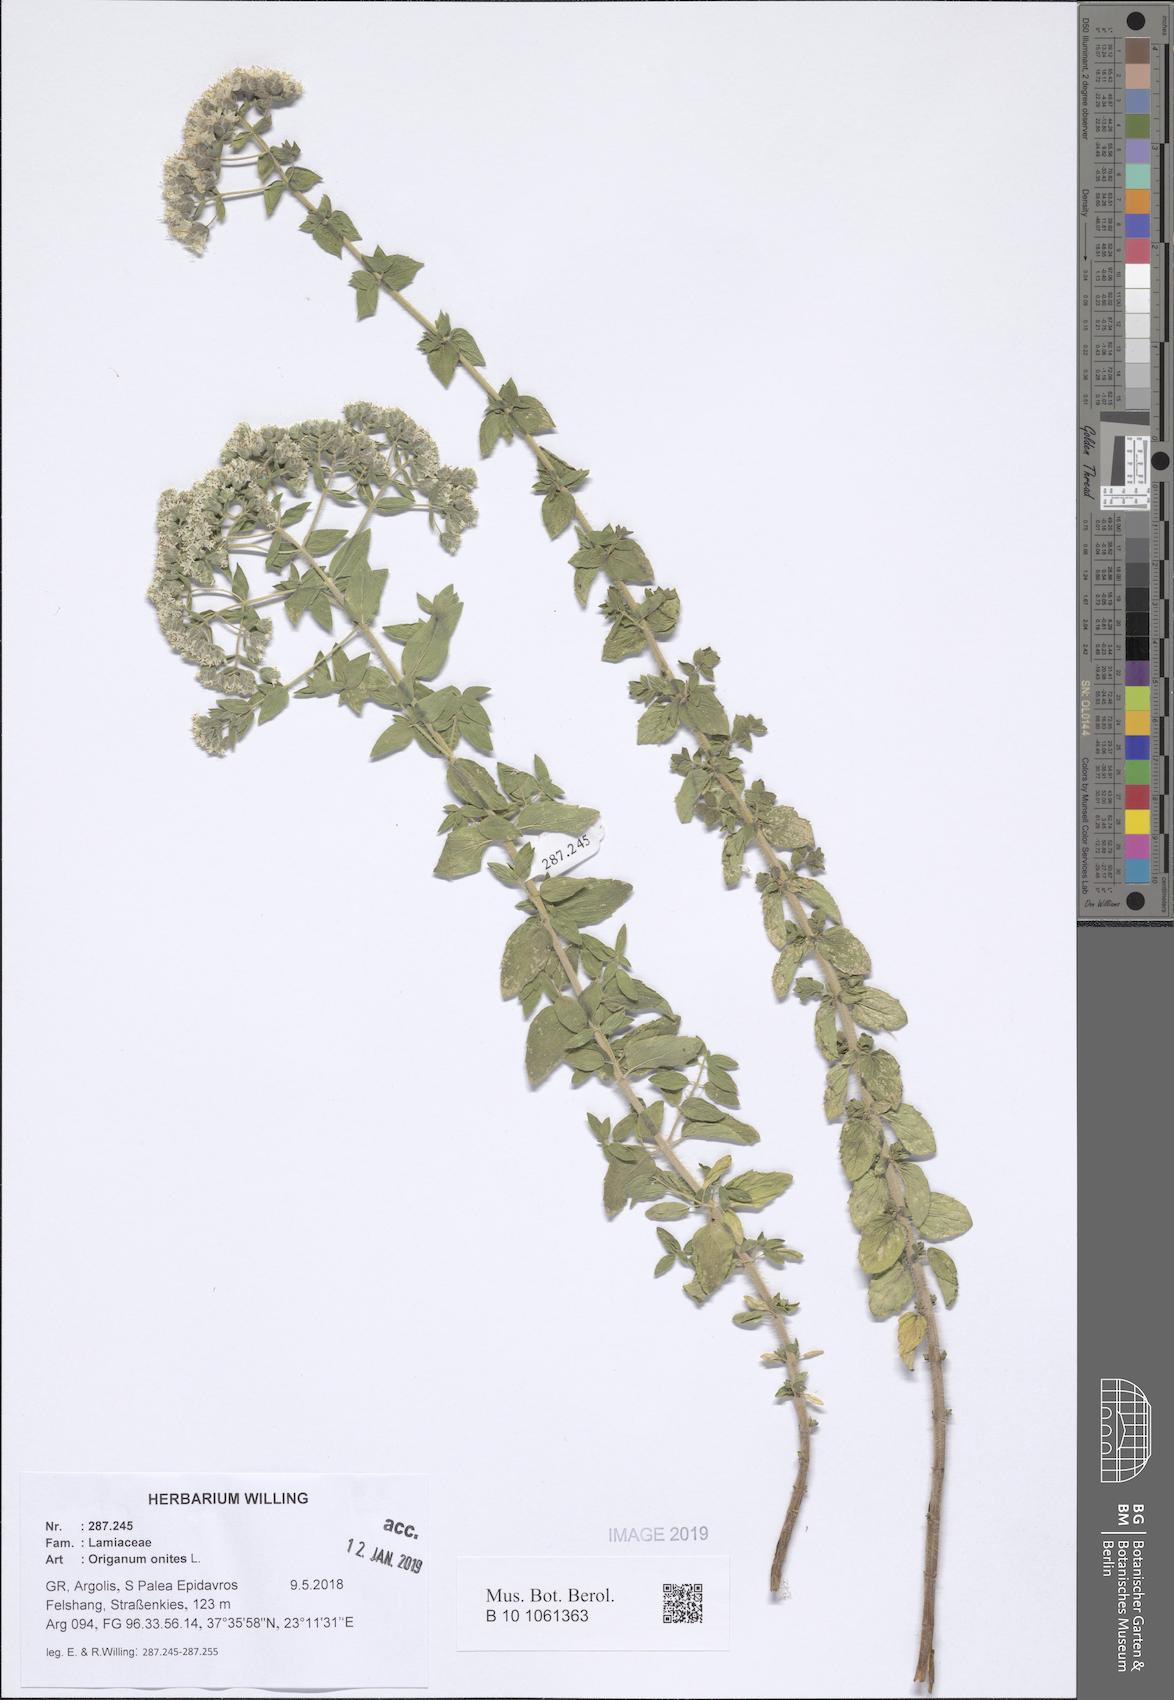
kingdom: Plantae
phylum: Tracheophyta
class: Magnoliopsida
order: Lamiales
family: Lamiaceae
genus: Origanum
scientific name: Origanum onites
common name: Turkish oregano
